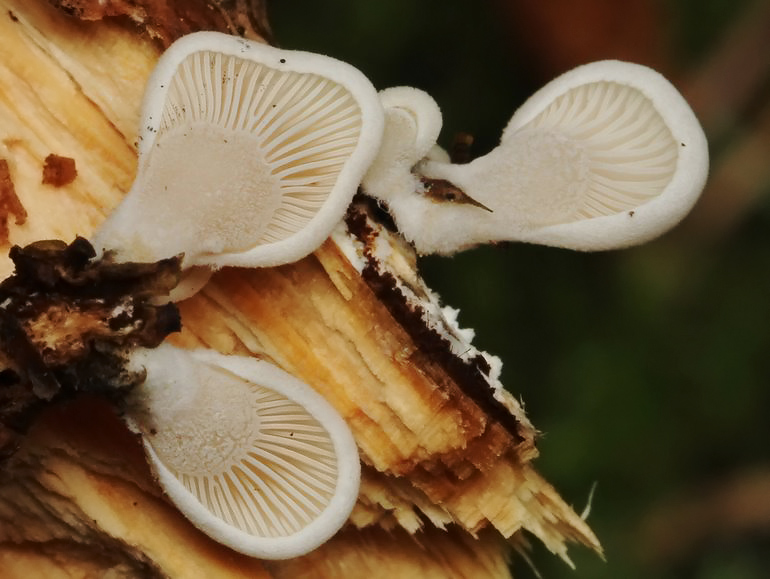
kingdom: Fungi
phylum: Basidiomycota
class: Agaricomycetes
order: Agaricales
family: Mycenaceae
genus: Panellus
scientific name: Panellus mitis
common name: mild epaulethat
